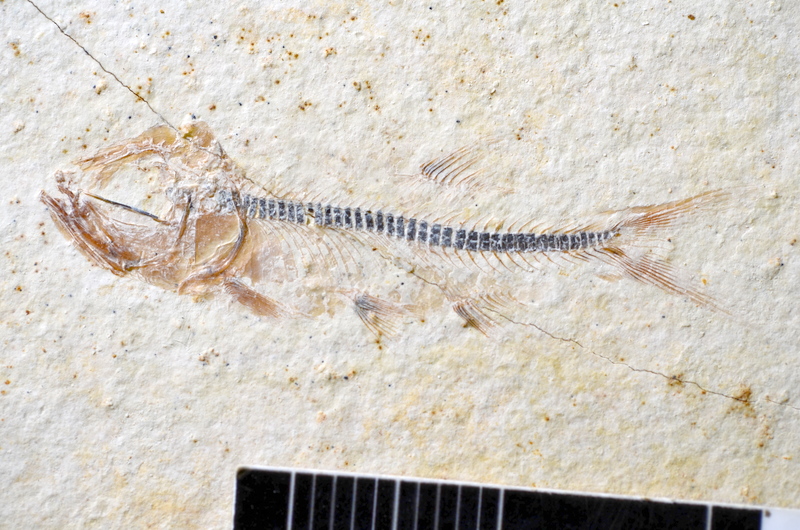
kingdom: Animalia
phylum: Chordata
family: Ascalaboidae
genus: Ebertichthys
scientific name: Ebertichthys ettlingensis
